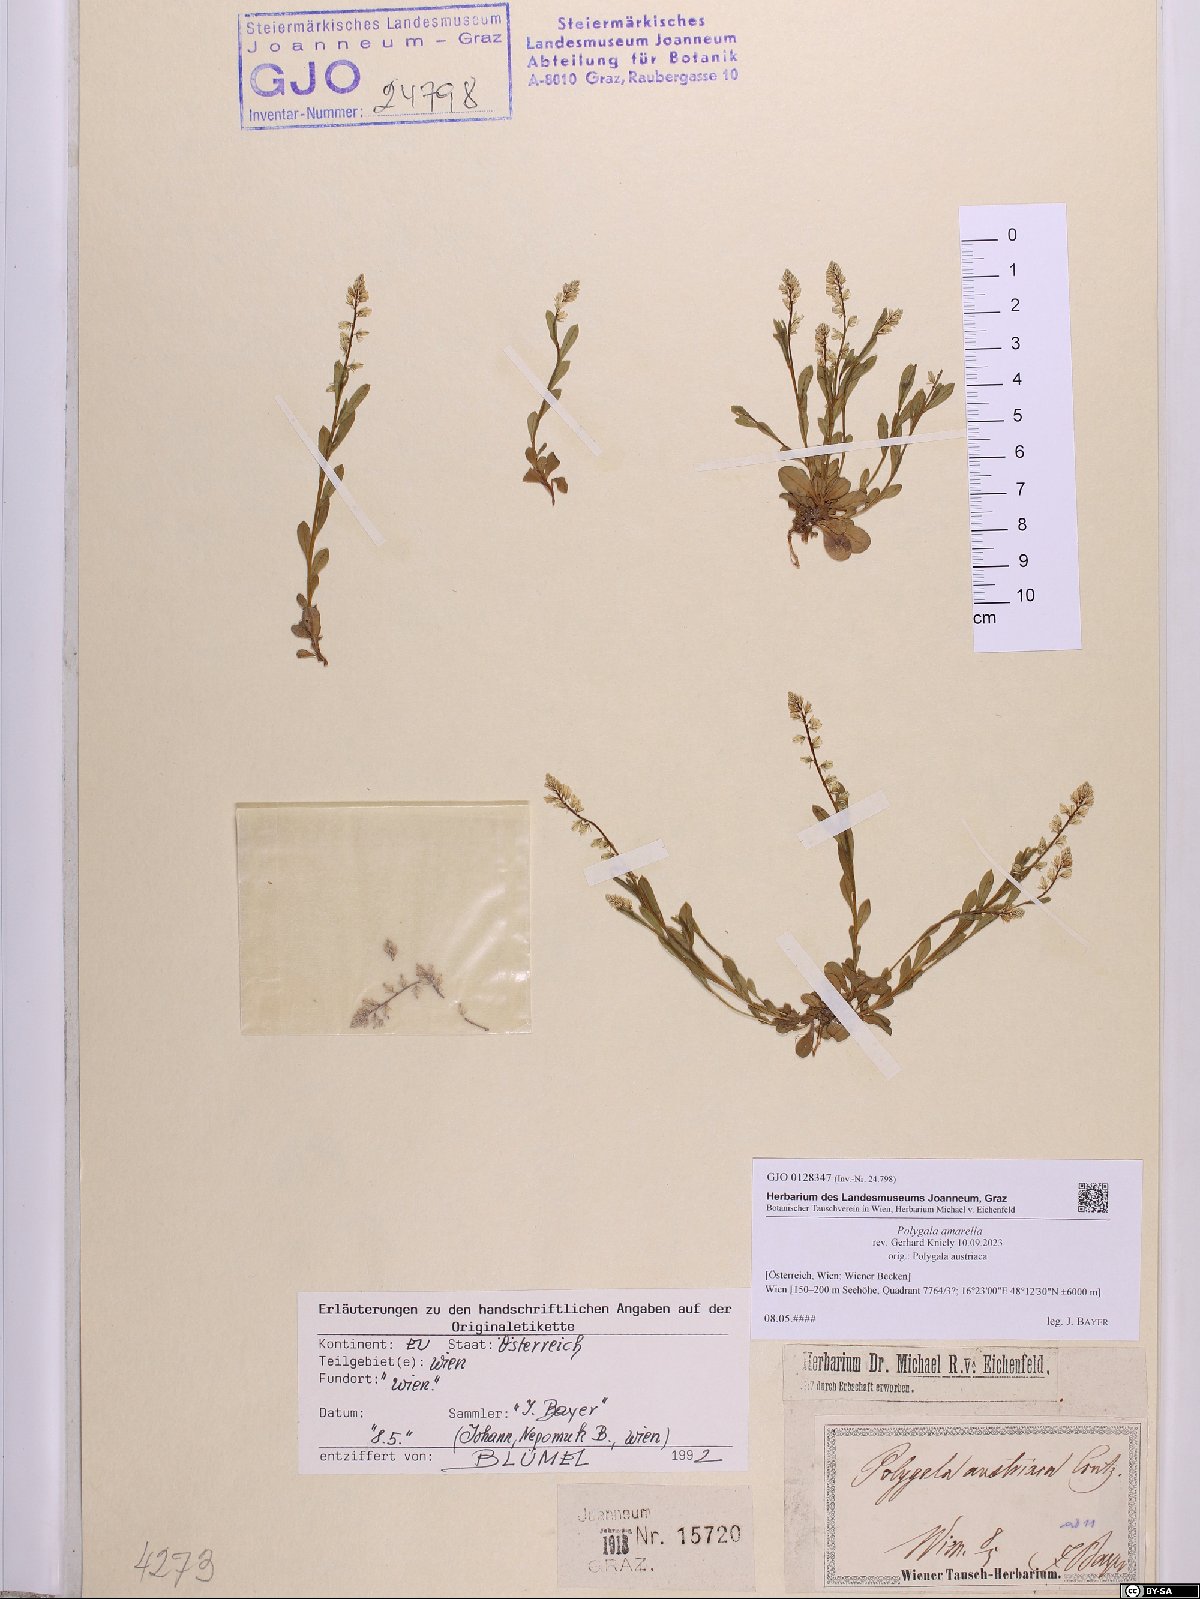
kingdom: Plantae
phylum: Tracheophyta
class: Magnoliopsida
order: Fabales
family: Polygalaceae
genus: Polygala
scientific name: Polygala amarella
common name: Dwarf milkwort
